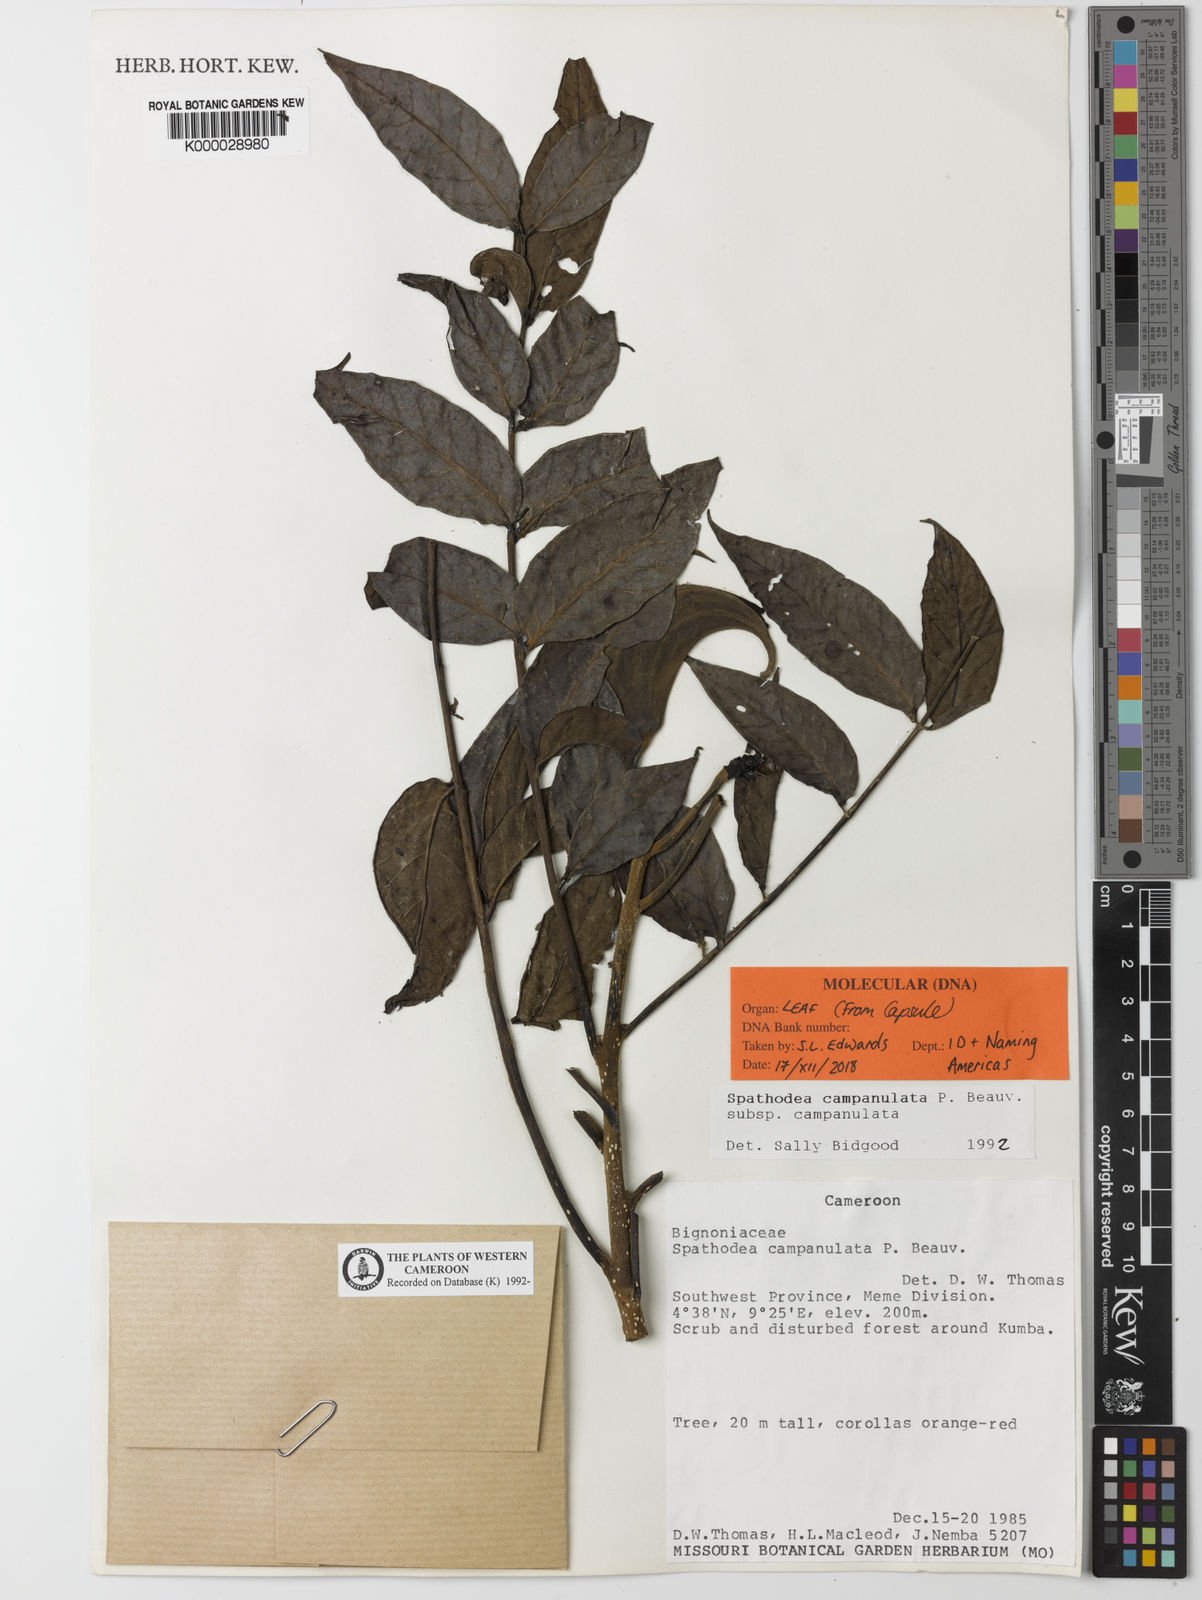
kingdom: Plantae
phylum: Tracheophyta
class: Magnoliopsida
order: Lamiales
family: Bignoniaceae
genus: Spathodea
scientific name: Spathodea campanulata
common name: African tuliptree
